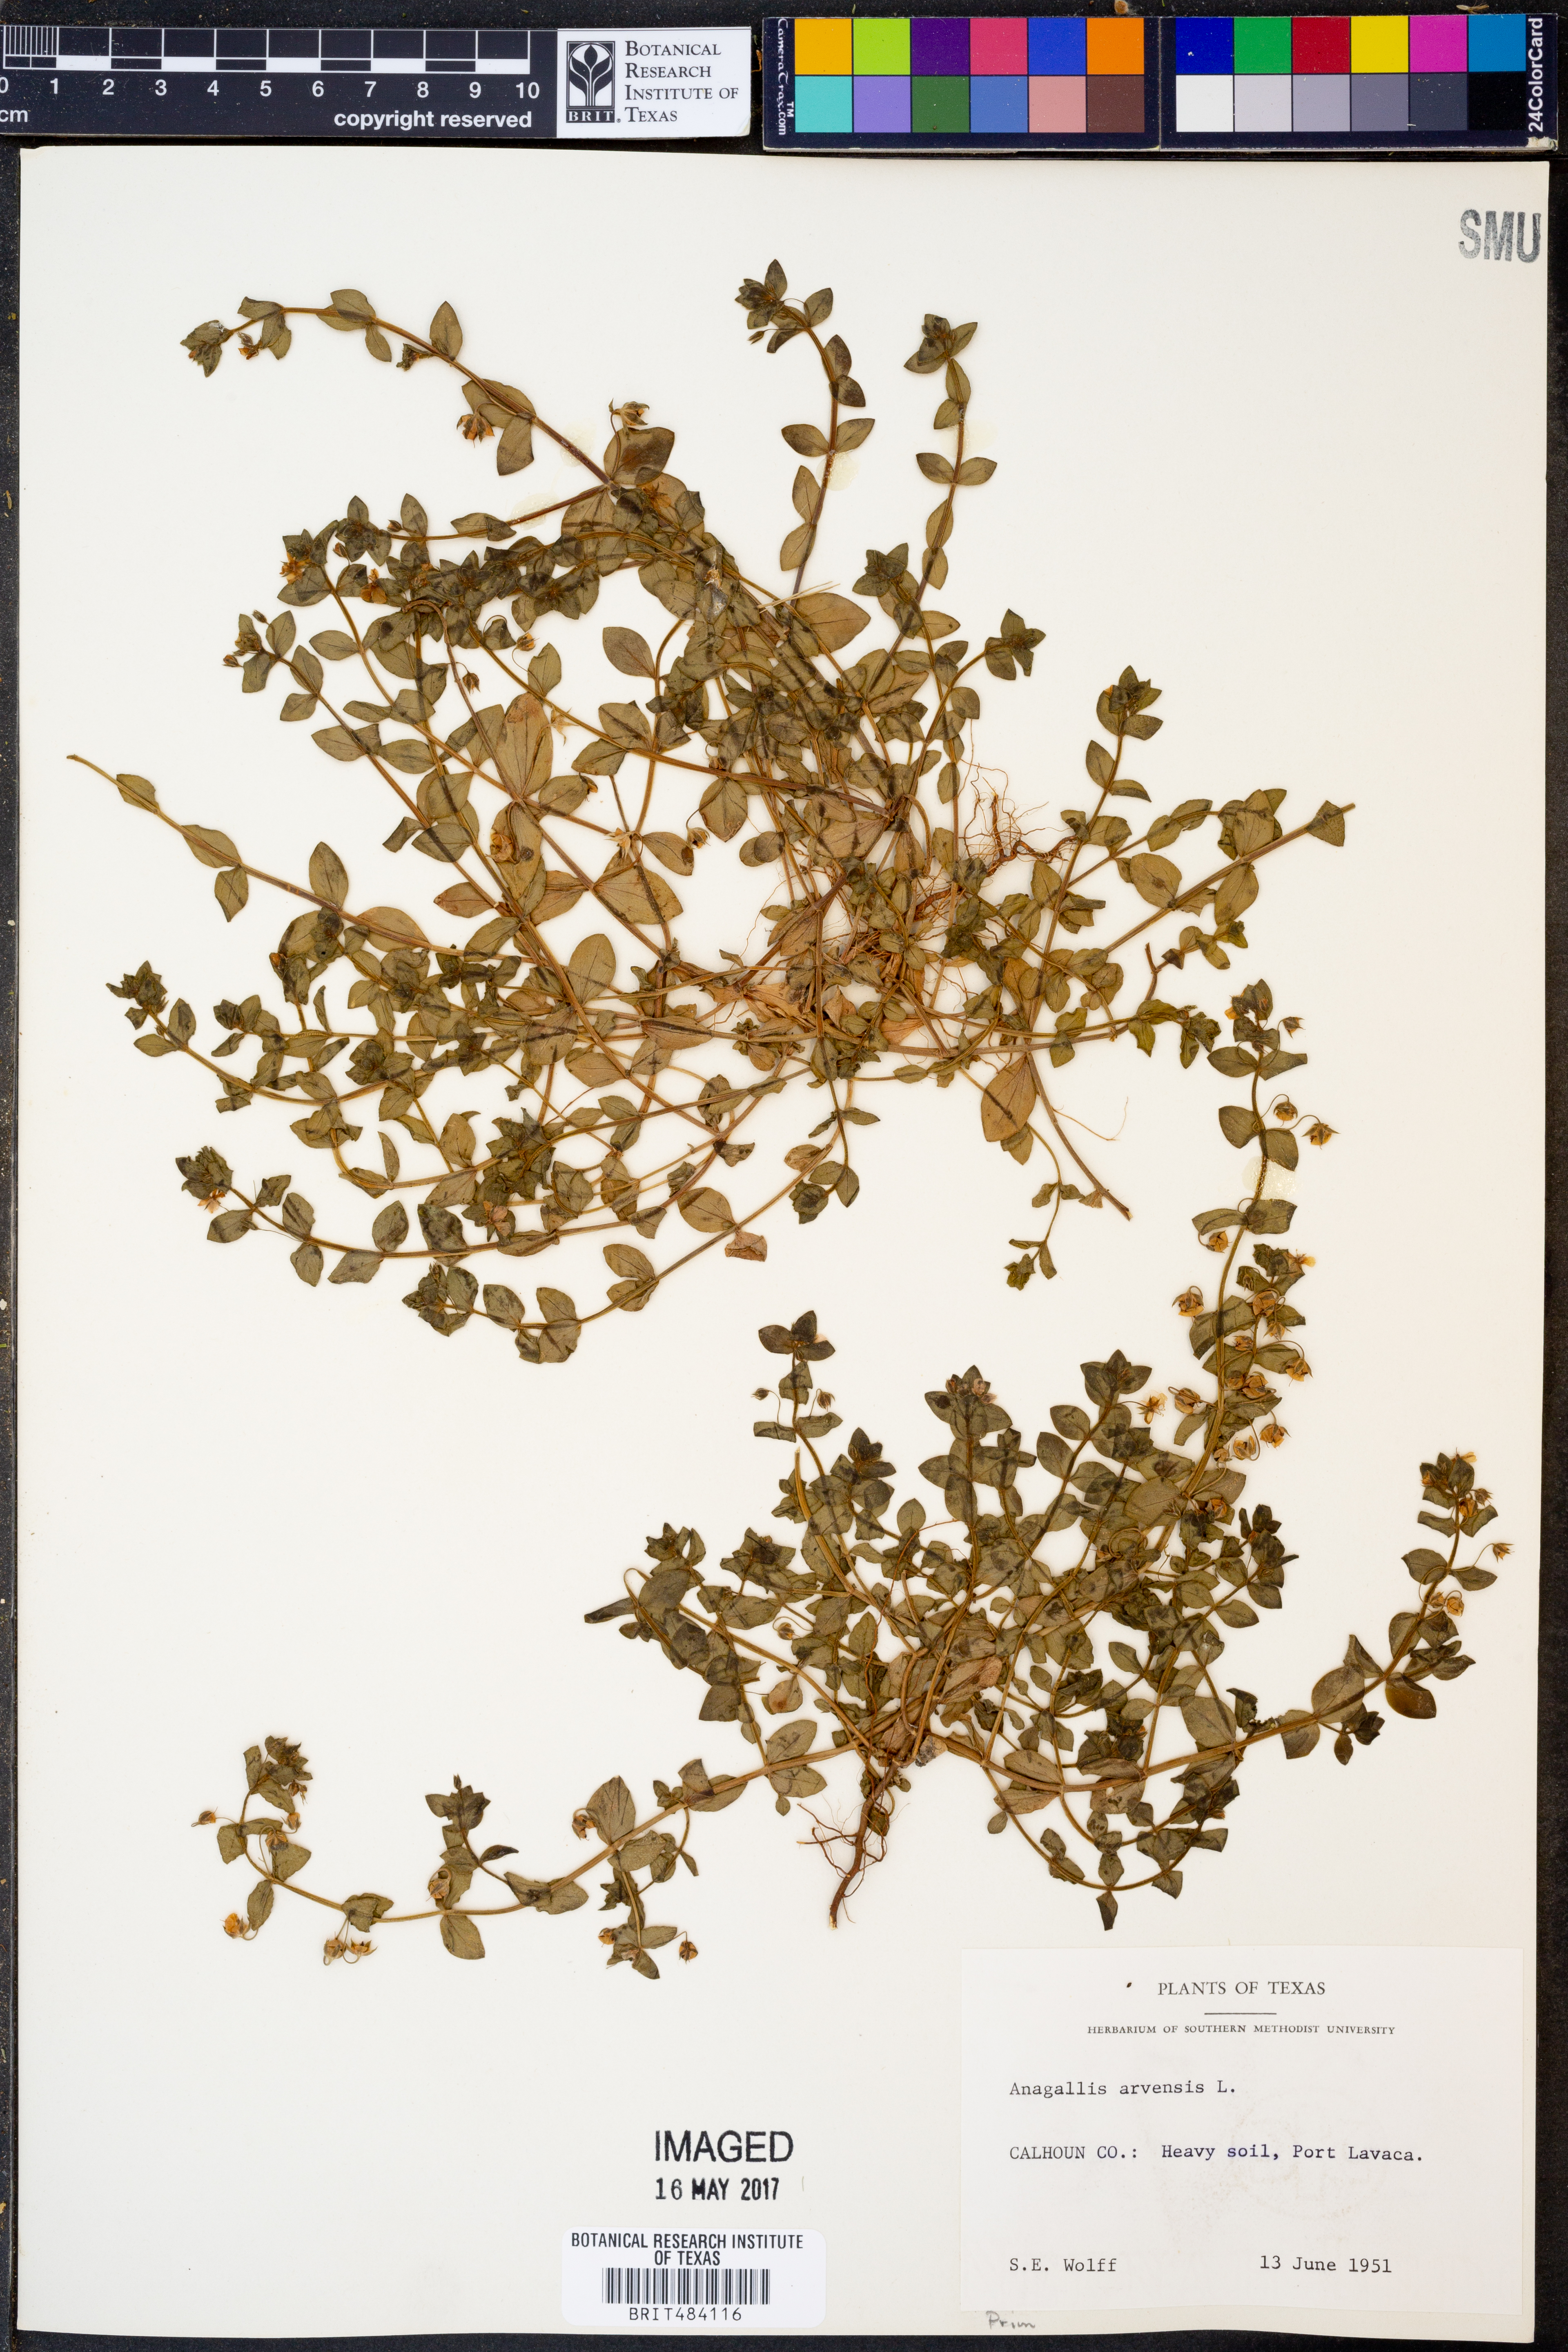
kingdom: Plantae
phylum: Tracheophyta
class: Magnoliopsida
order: Ericales
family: Primulaceae
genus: Lysimachia
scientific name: Lysimachia arvensis
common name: Scarlet pimpernel
